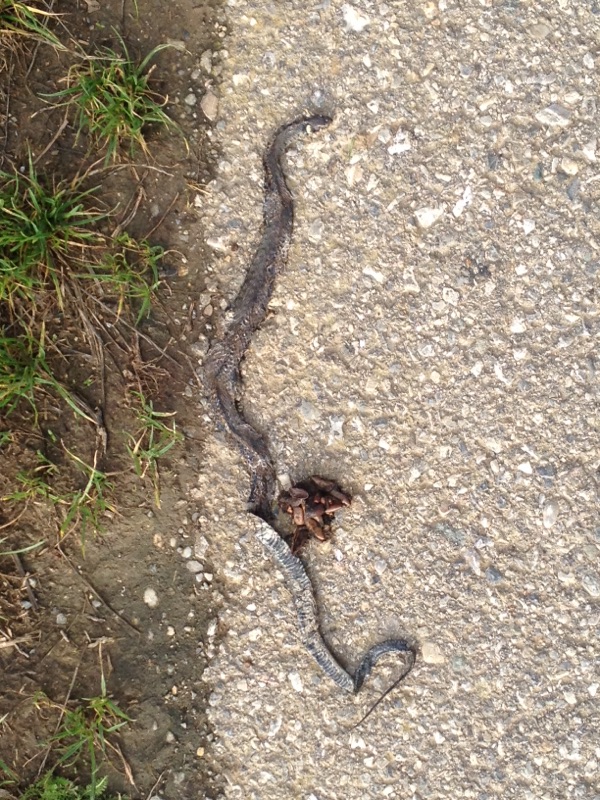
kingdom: Animalia
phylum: Chordata
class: Squamata
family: Colubridae
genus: Natrix
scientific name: Natrix natrix
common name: Grass snake
